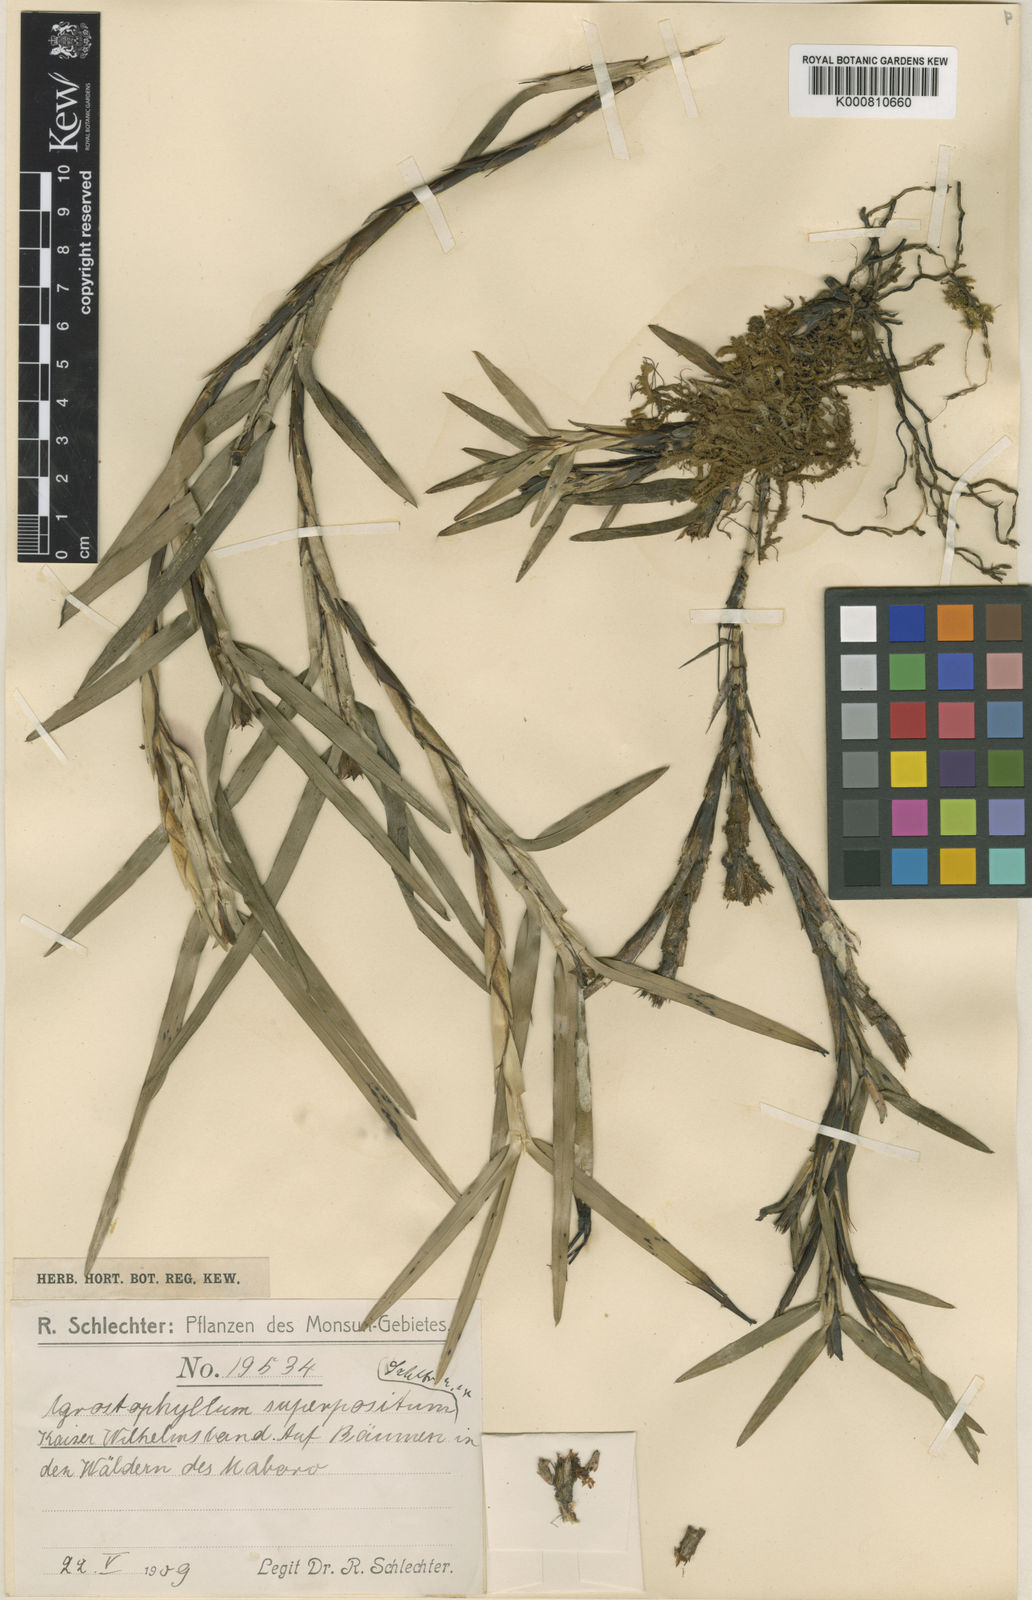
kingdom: Plantae
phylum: Tracheophyta
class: Liliopsida
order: Asparagales
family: Orchidaceae
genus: Agrostophyllum
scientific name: Agrostophyllum superpositum
